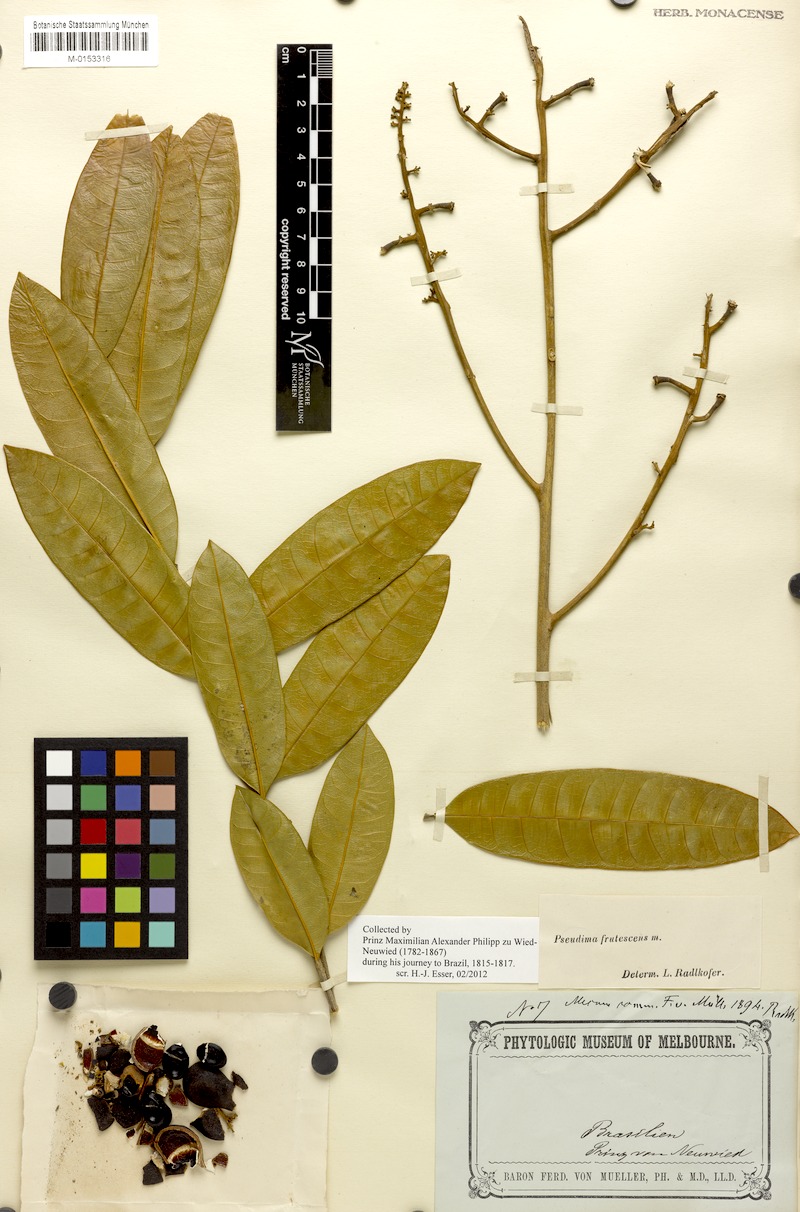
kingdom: Plantae
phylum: Tracheophyta
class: Magnoliopsida
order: Sapindales
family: Sapindaceae
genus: Pseudima
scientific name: Pseudima frutescens
